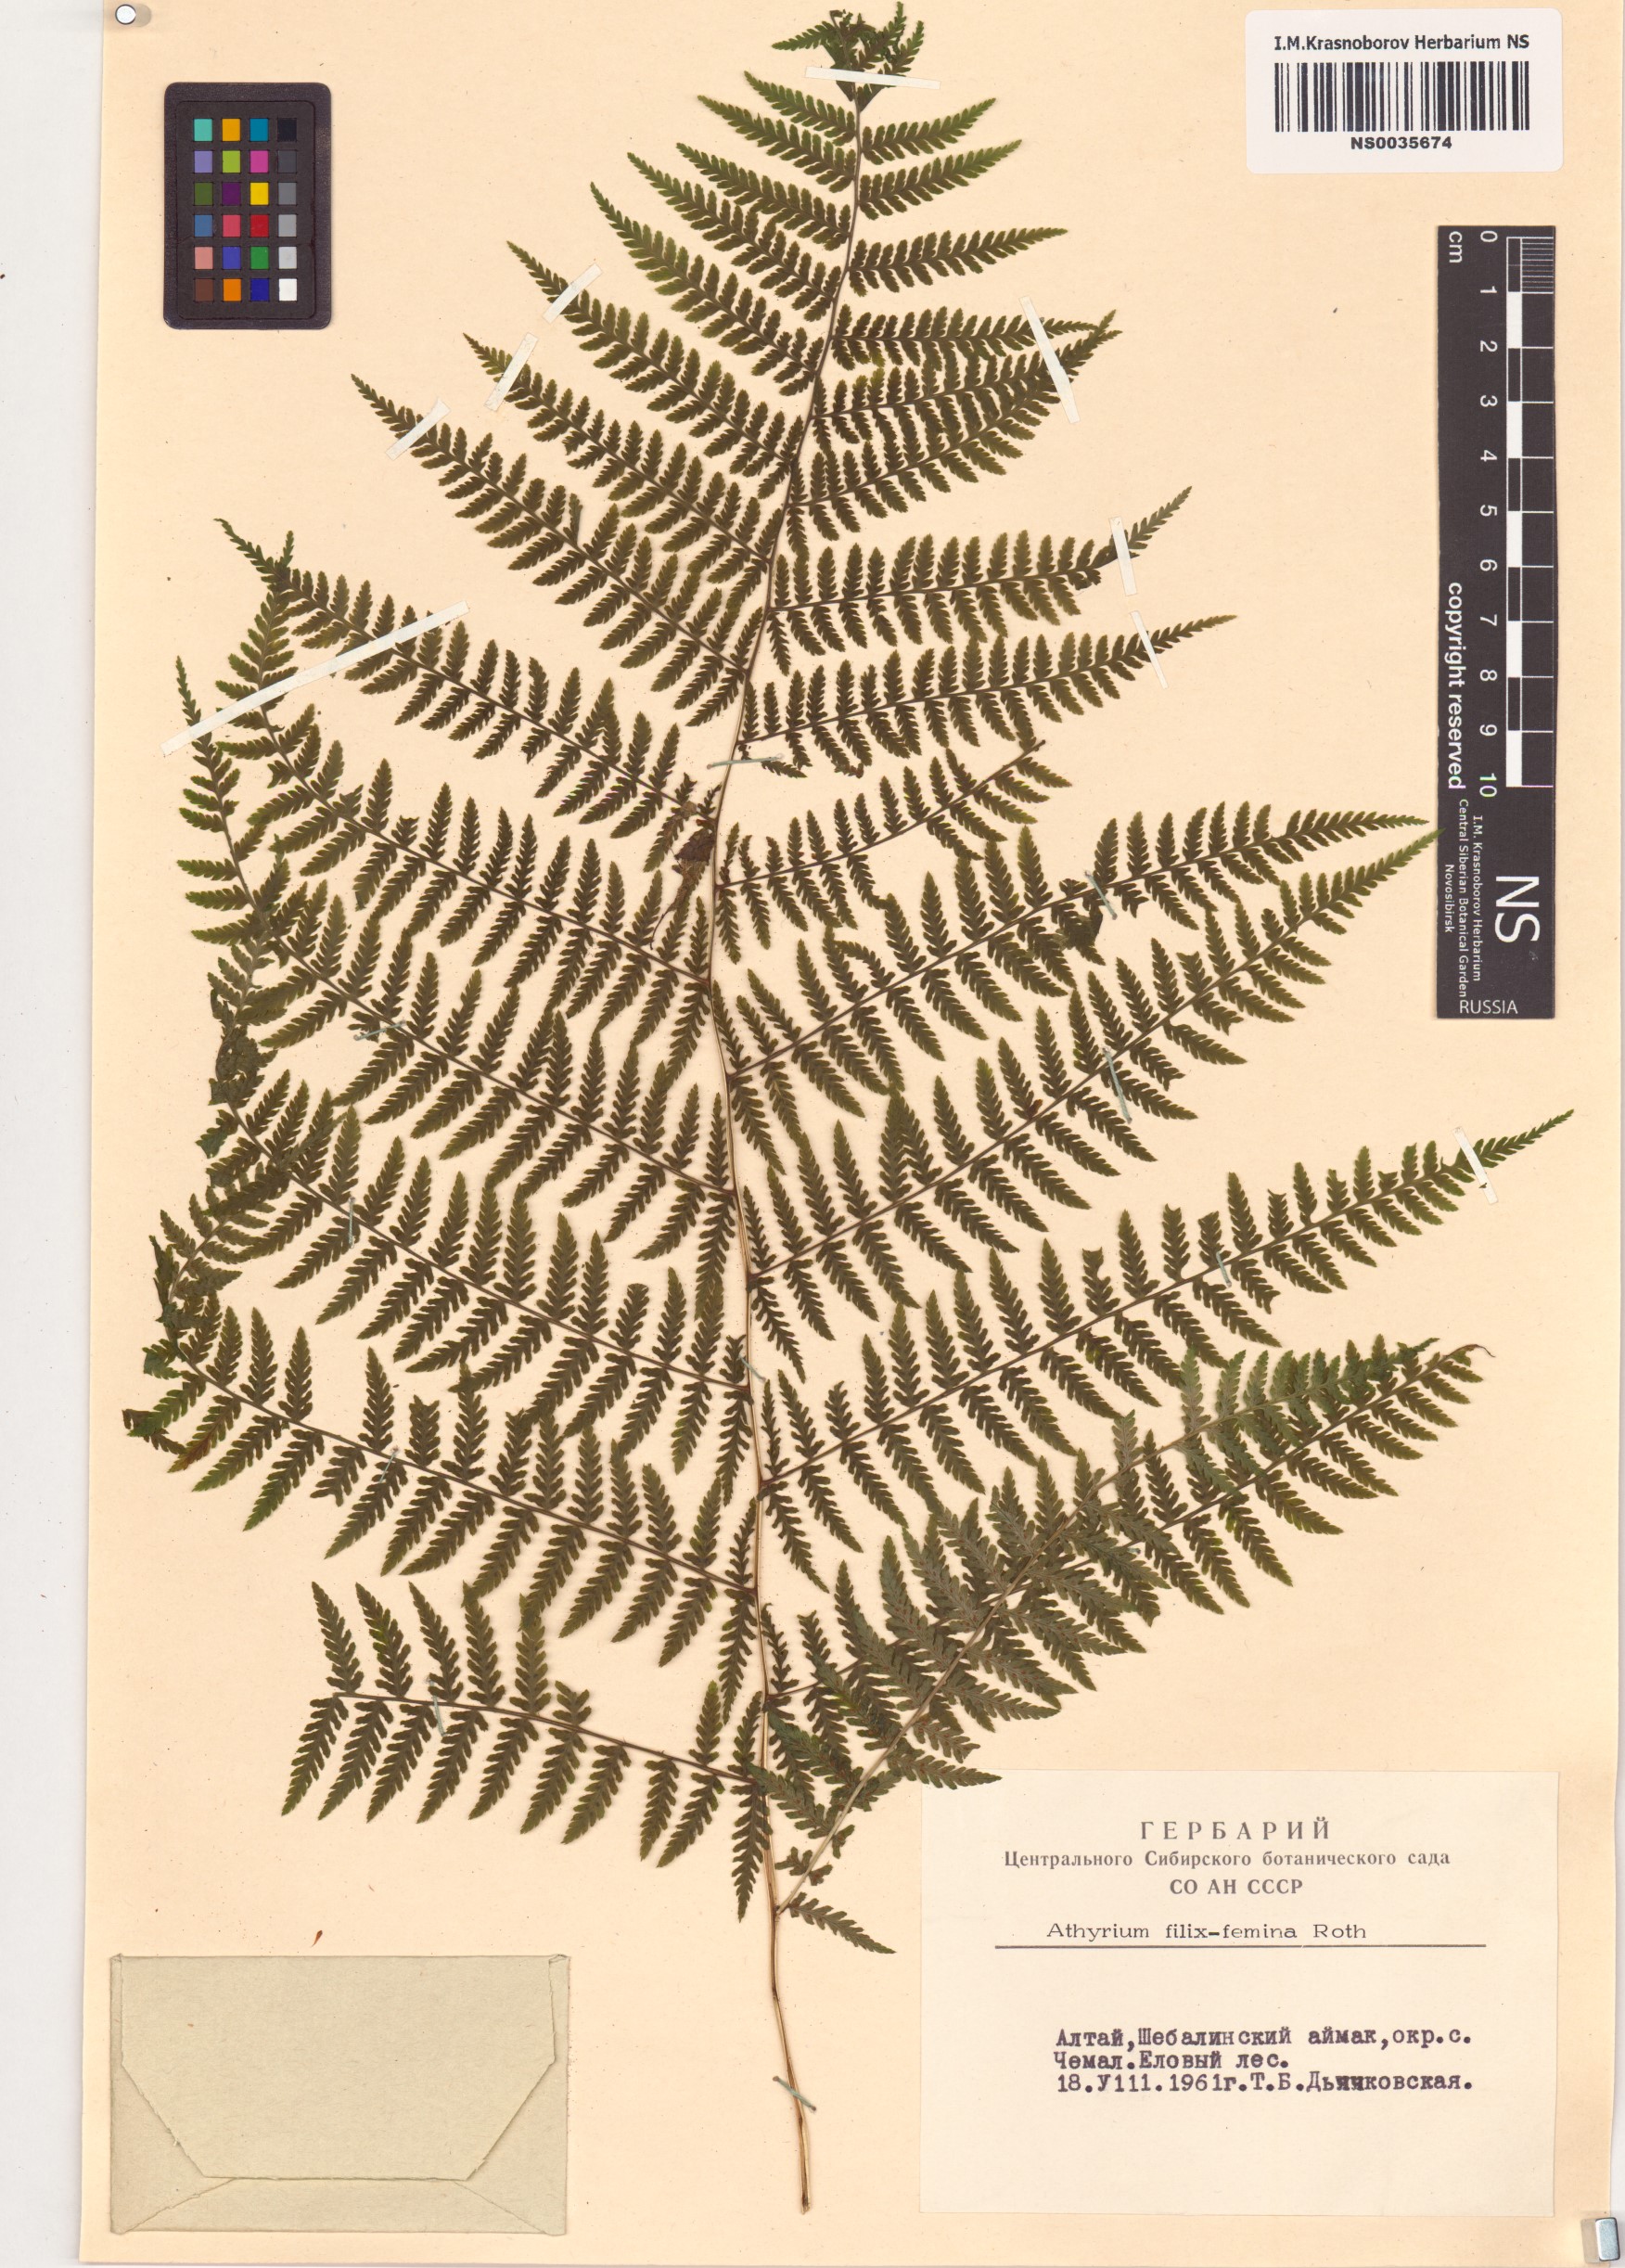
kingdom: Plantae
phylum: Tracheophyta
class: Polypodiopsida
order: Polypodiales
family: Athyriaceae
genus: Athyrium
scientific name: Athyrium filix-femina
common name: Lady fern
